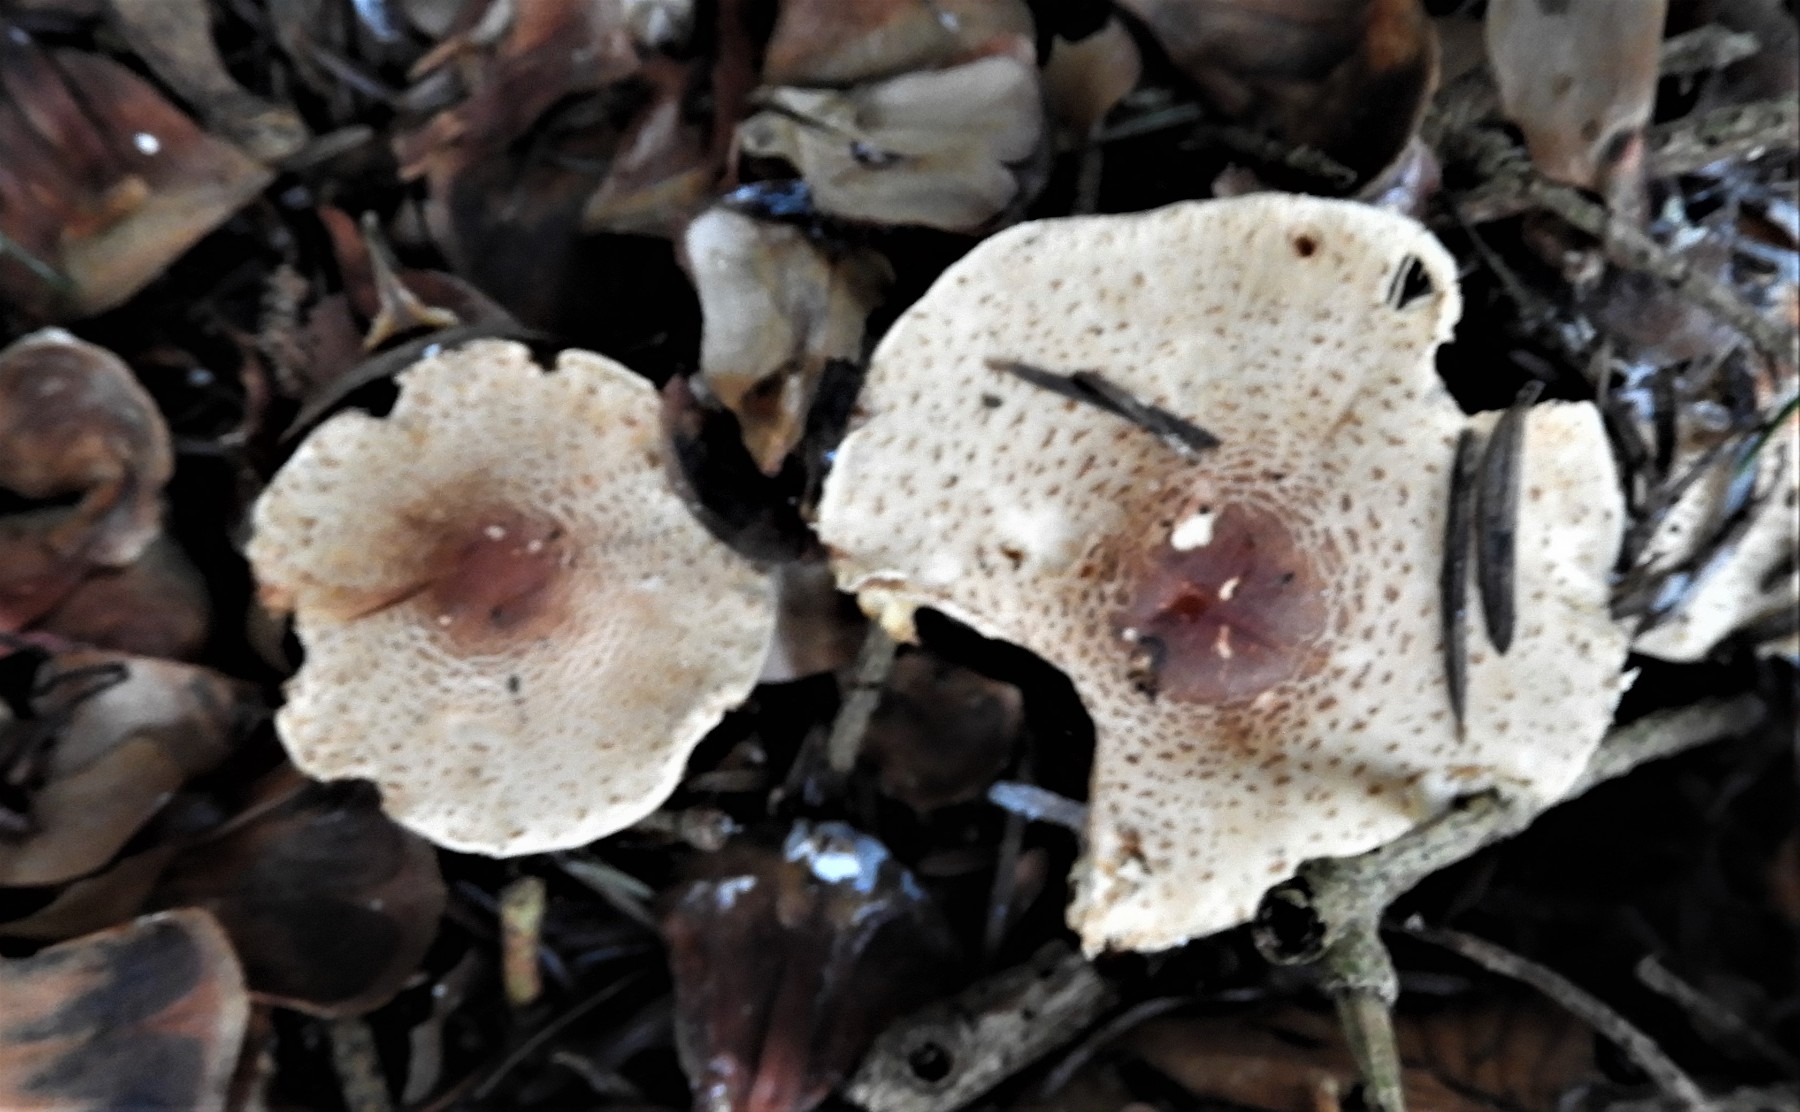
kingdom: Fungi
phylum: Basidiomycota
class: Agaricomycetes
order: Agaricales
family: Agaricaceae
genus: Lepiota
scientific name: Lepiota
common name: parasolhat
